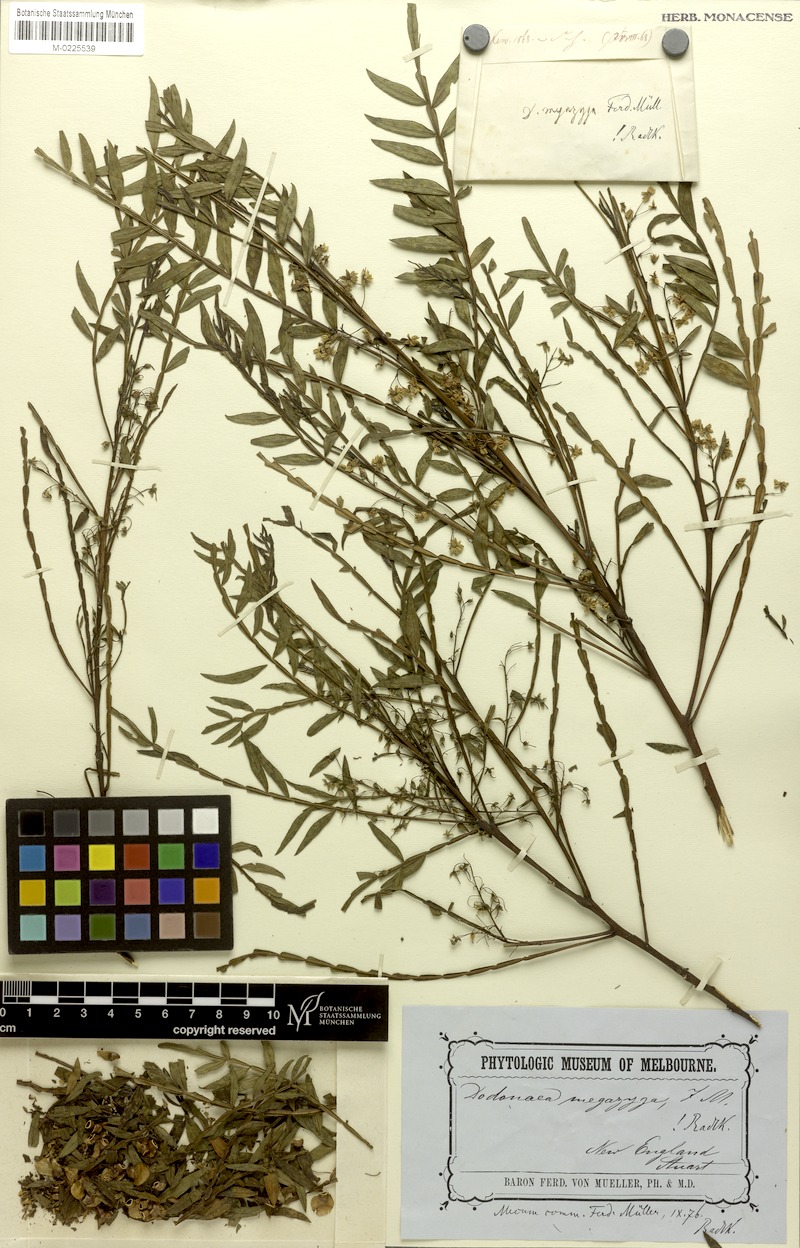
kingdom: Plantae
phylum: Tracheophyta
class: Magnoliopsida
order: Sapindales
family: Sapindaceae
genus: Dodonaea
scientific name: Dodonaea megazyga
